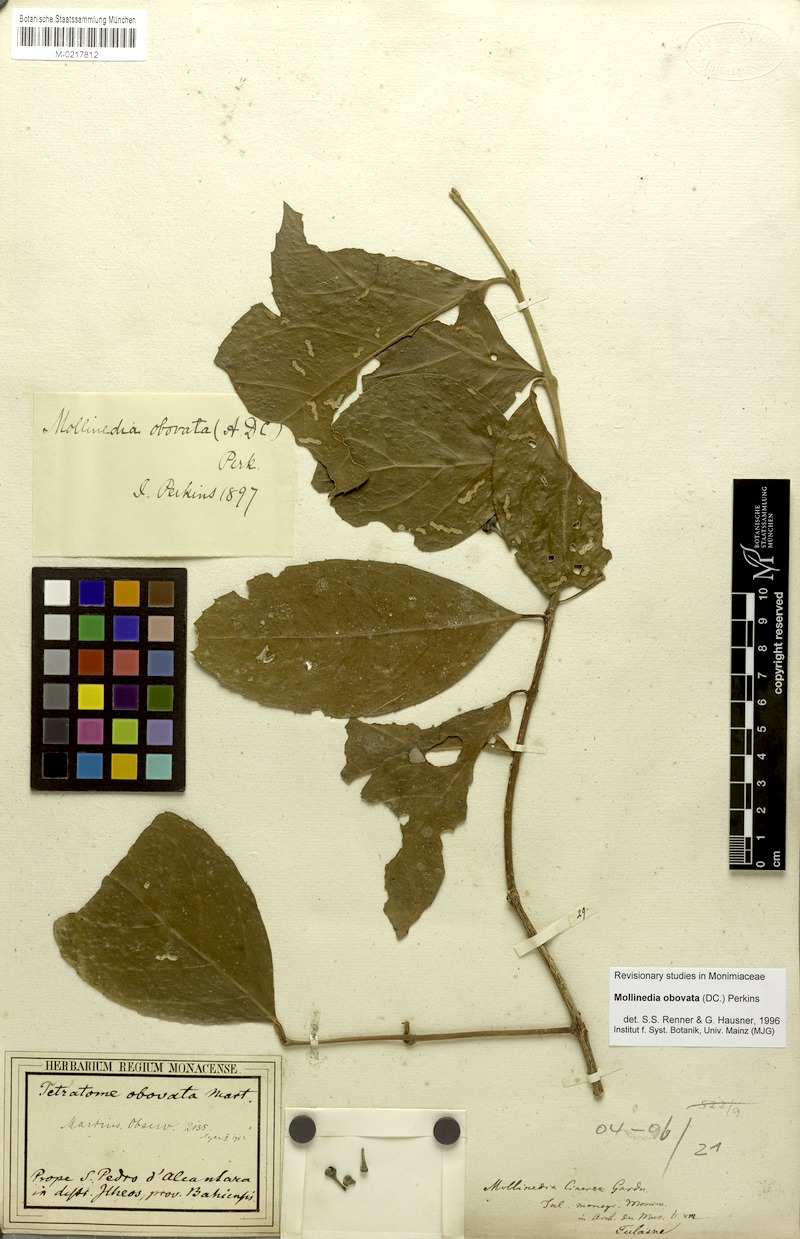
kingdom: Plantae
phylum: Tracheophyta
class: Magnoliopsida
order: Laurales
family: Monimiaceae
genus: Mollinedia
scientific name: Mollinedia ovata
